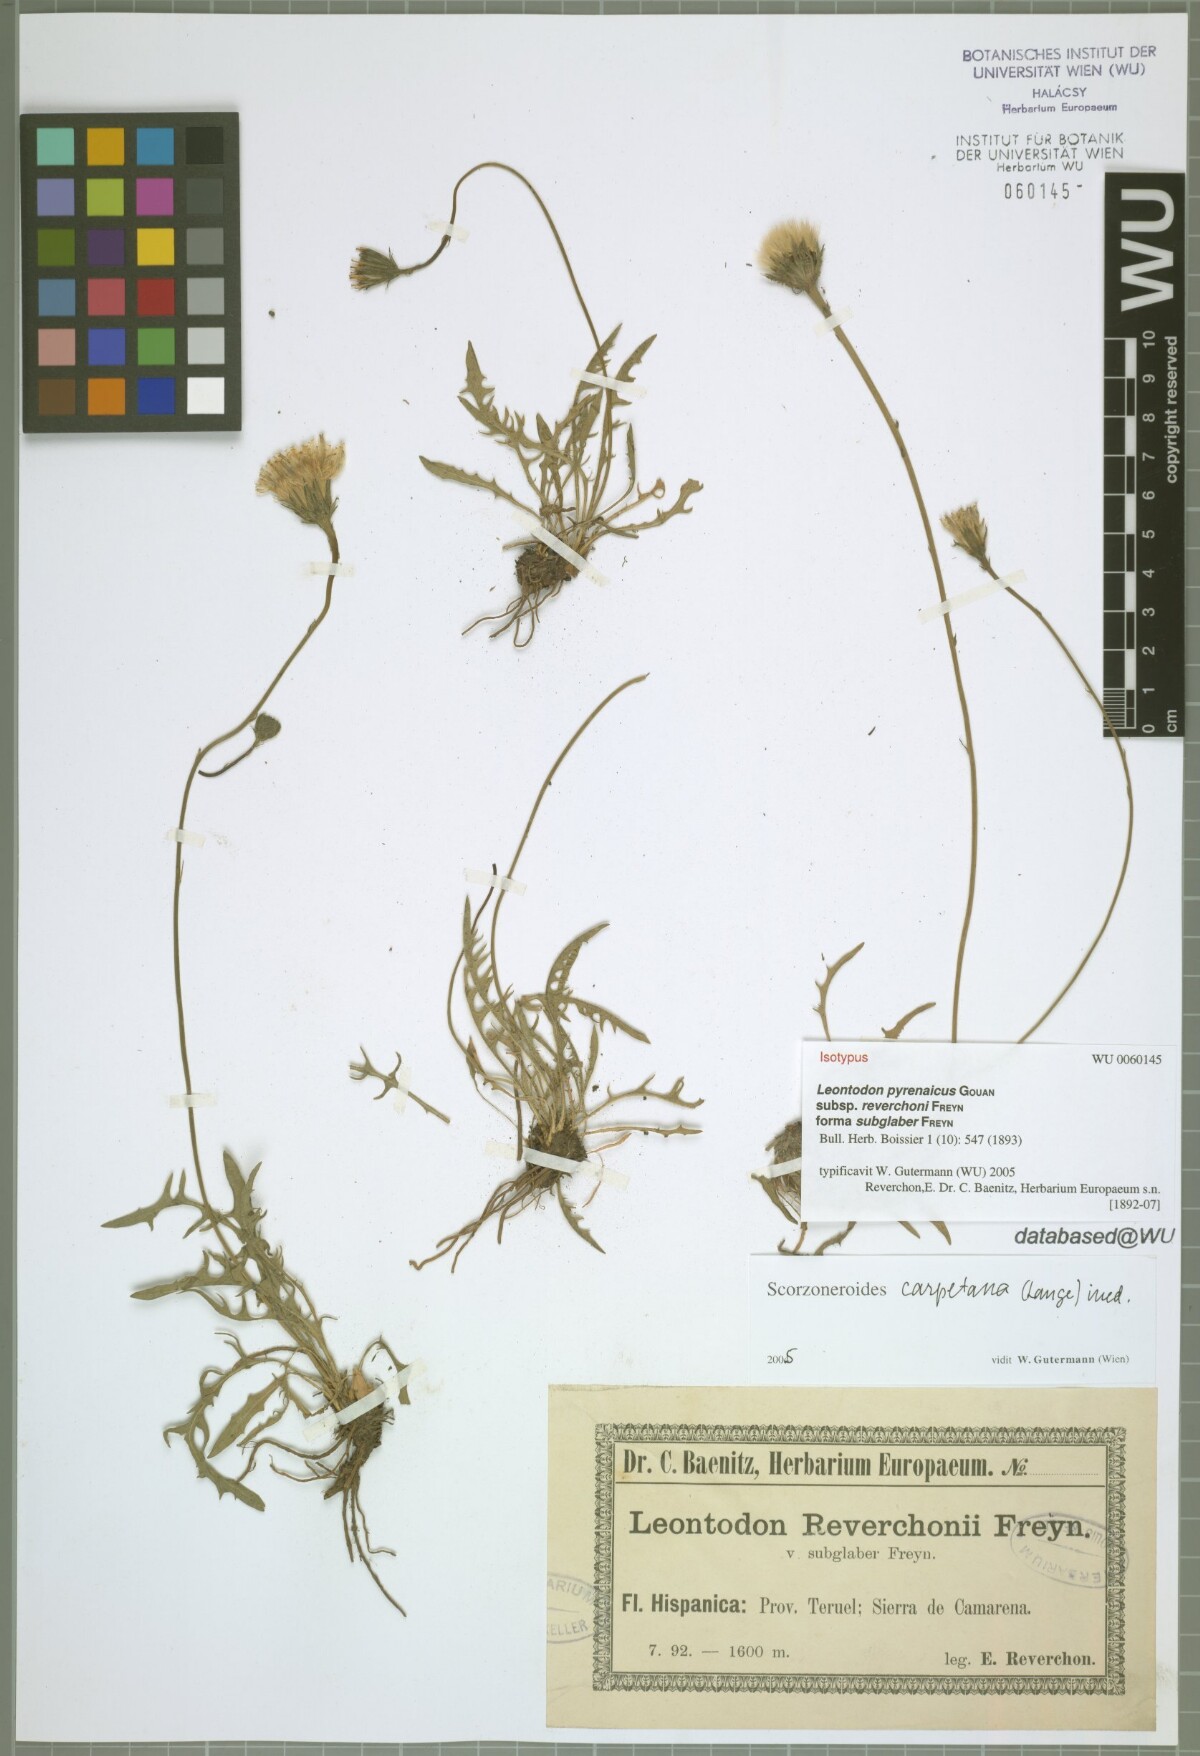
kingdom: Plantae
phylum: Tracheophyta
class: Magnoliopsida
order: Asterales
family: Asteraceae
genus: Scorzoneroides
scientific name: Scorzoneroides pyrenaica
